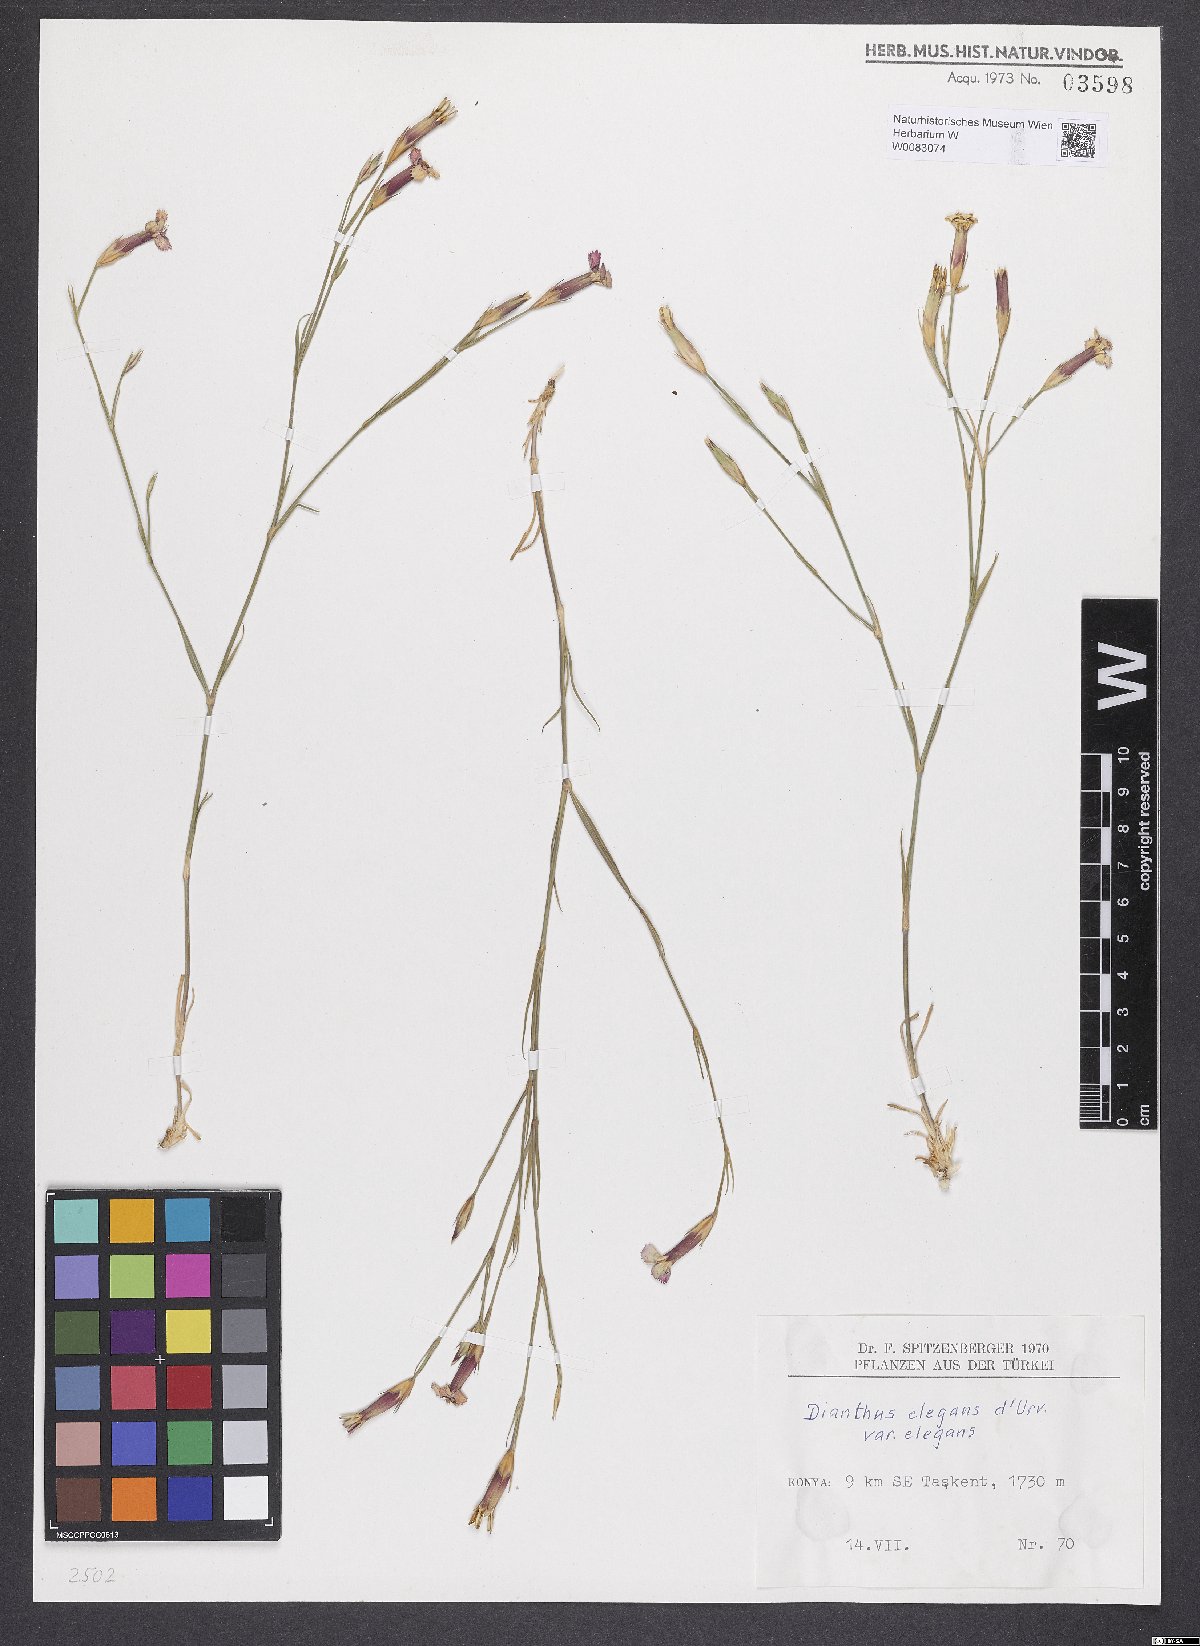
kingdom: Plantae
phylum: Tracheophyta
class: Magnoliopsida
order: Caryophyllales
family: Caryophyllaceae
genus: Dianthus
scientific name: Dianthus elegans
